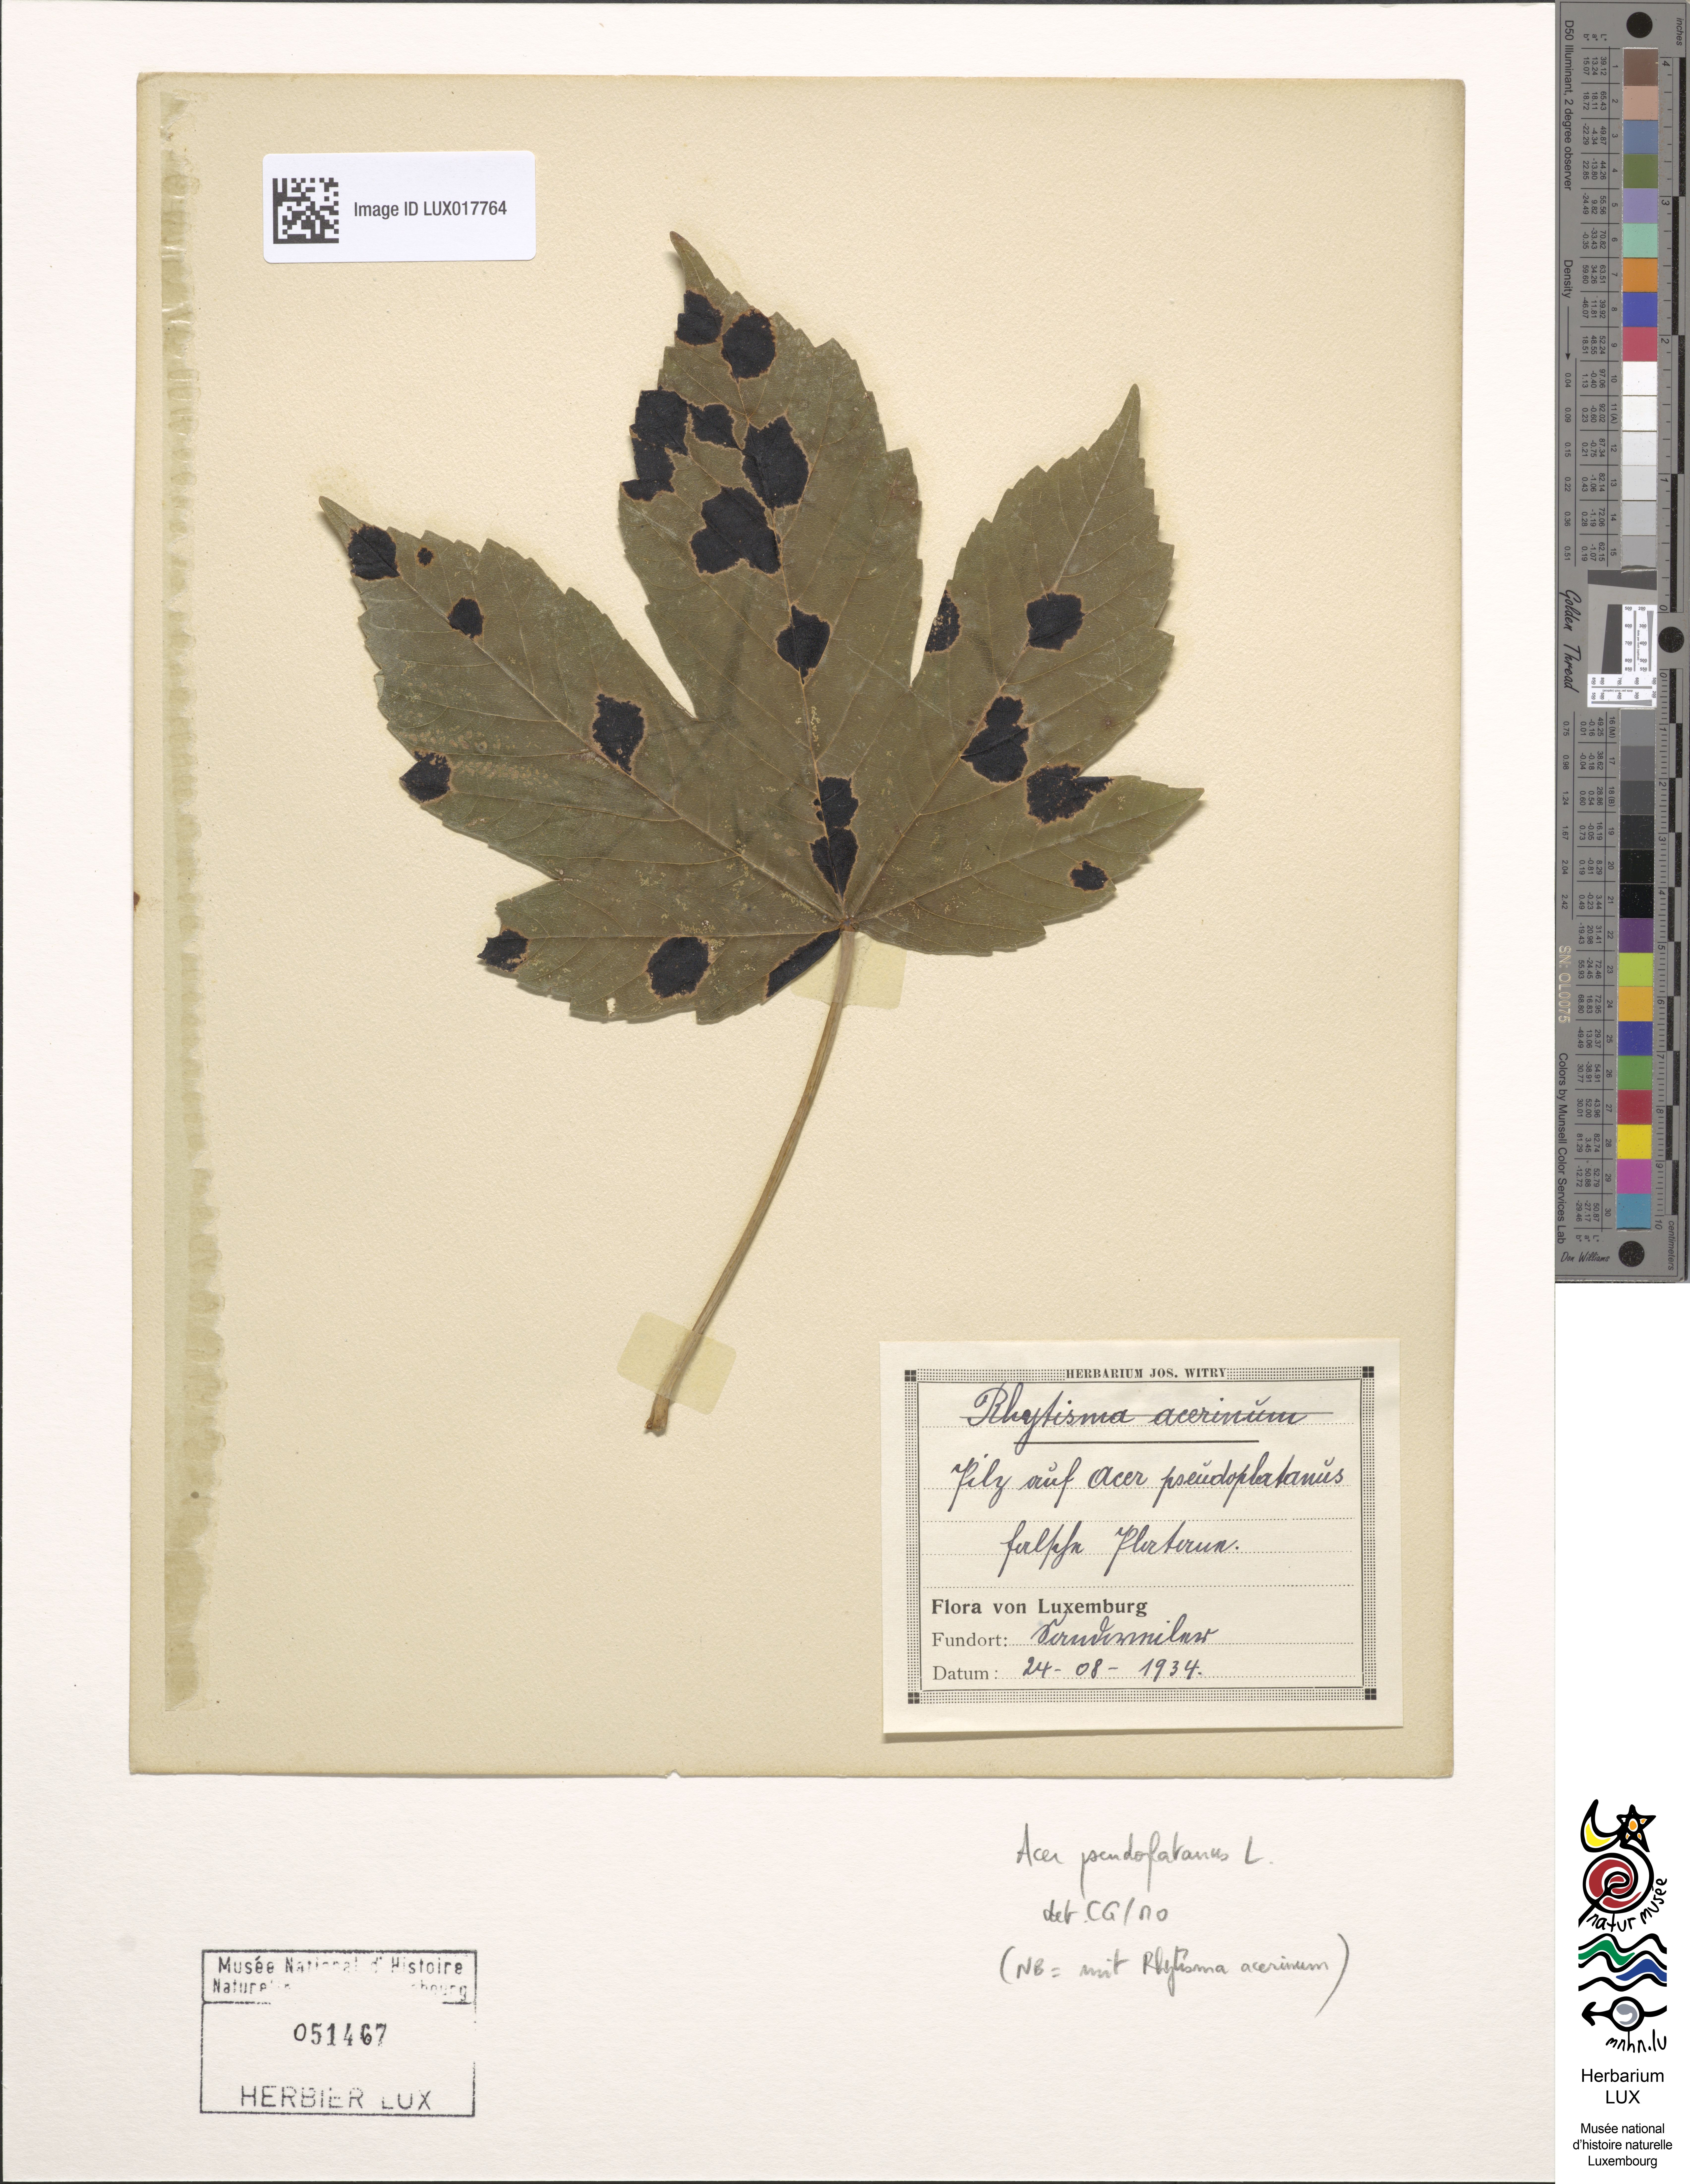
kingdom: Plantae
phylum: Tracheophyta
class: Magnoliopsida
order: Sapindales
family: Sapindaceae
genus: Acer
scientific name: Acer pseudoplatanus
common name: Sycamore
